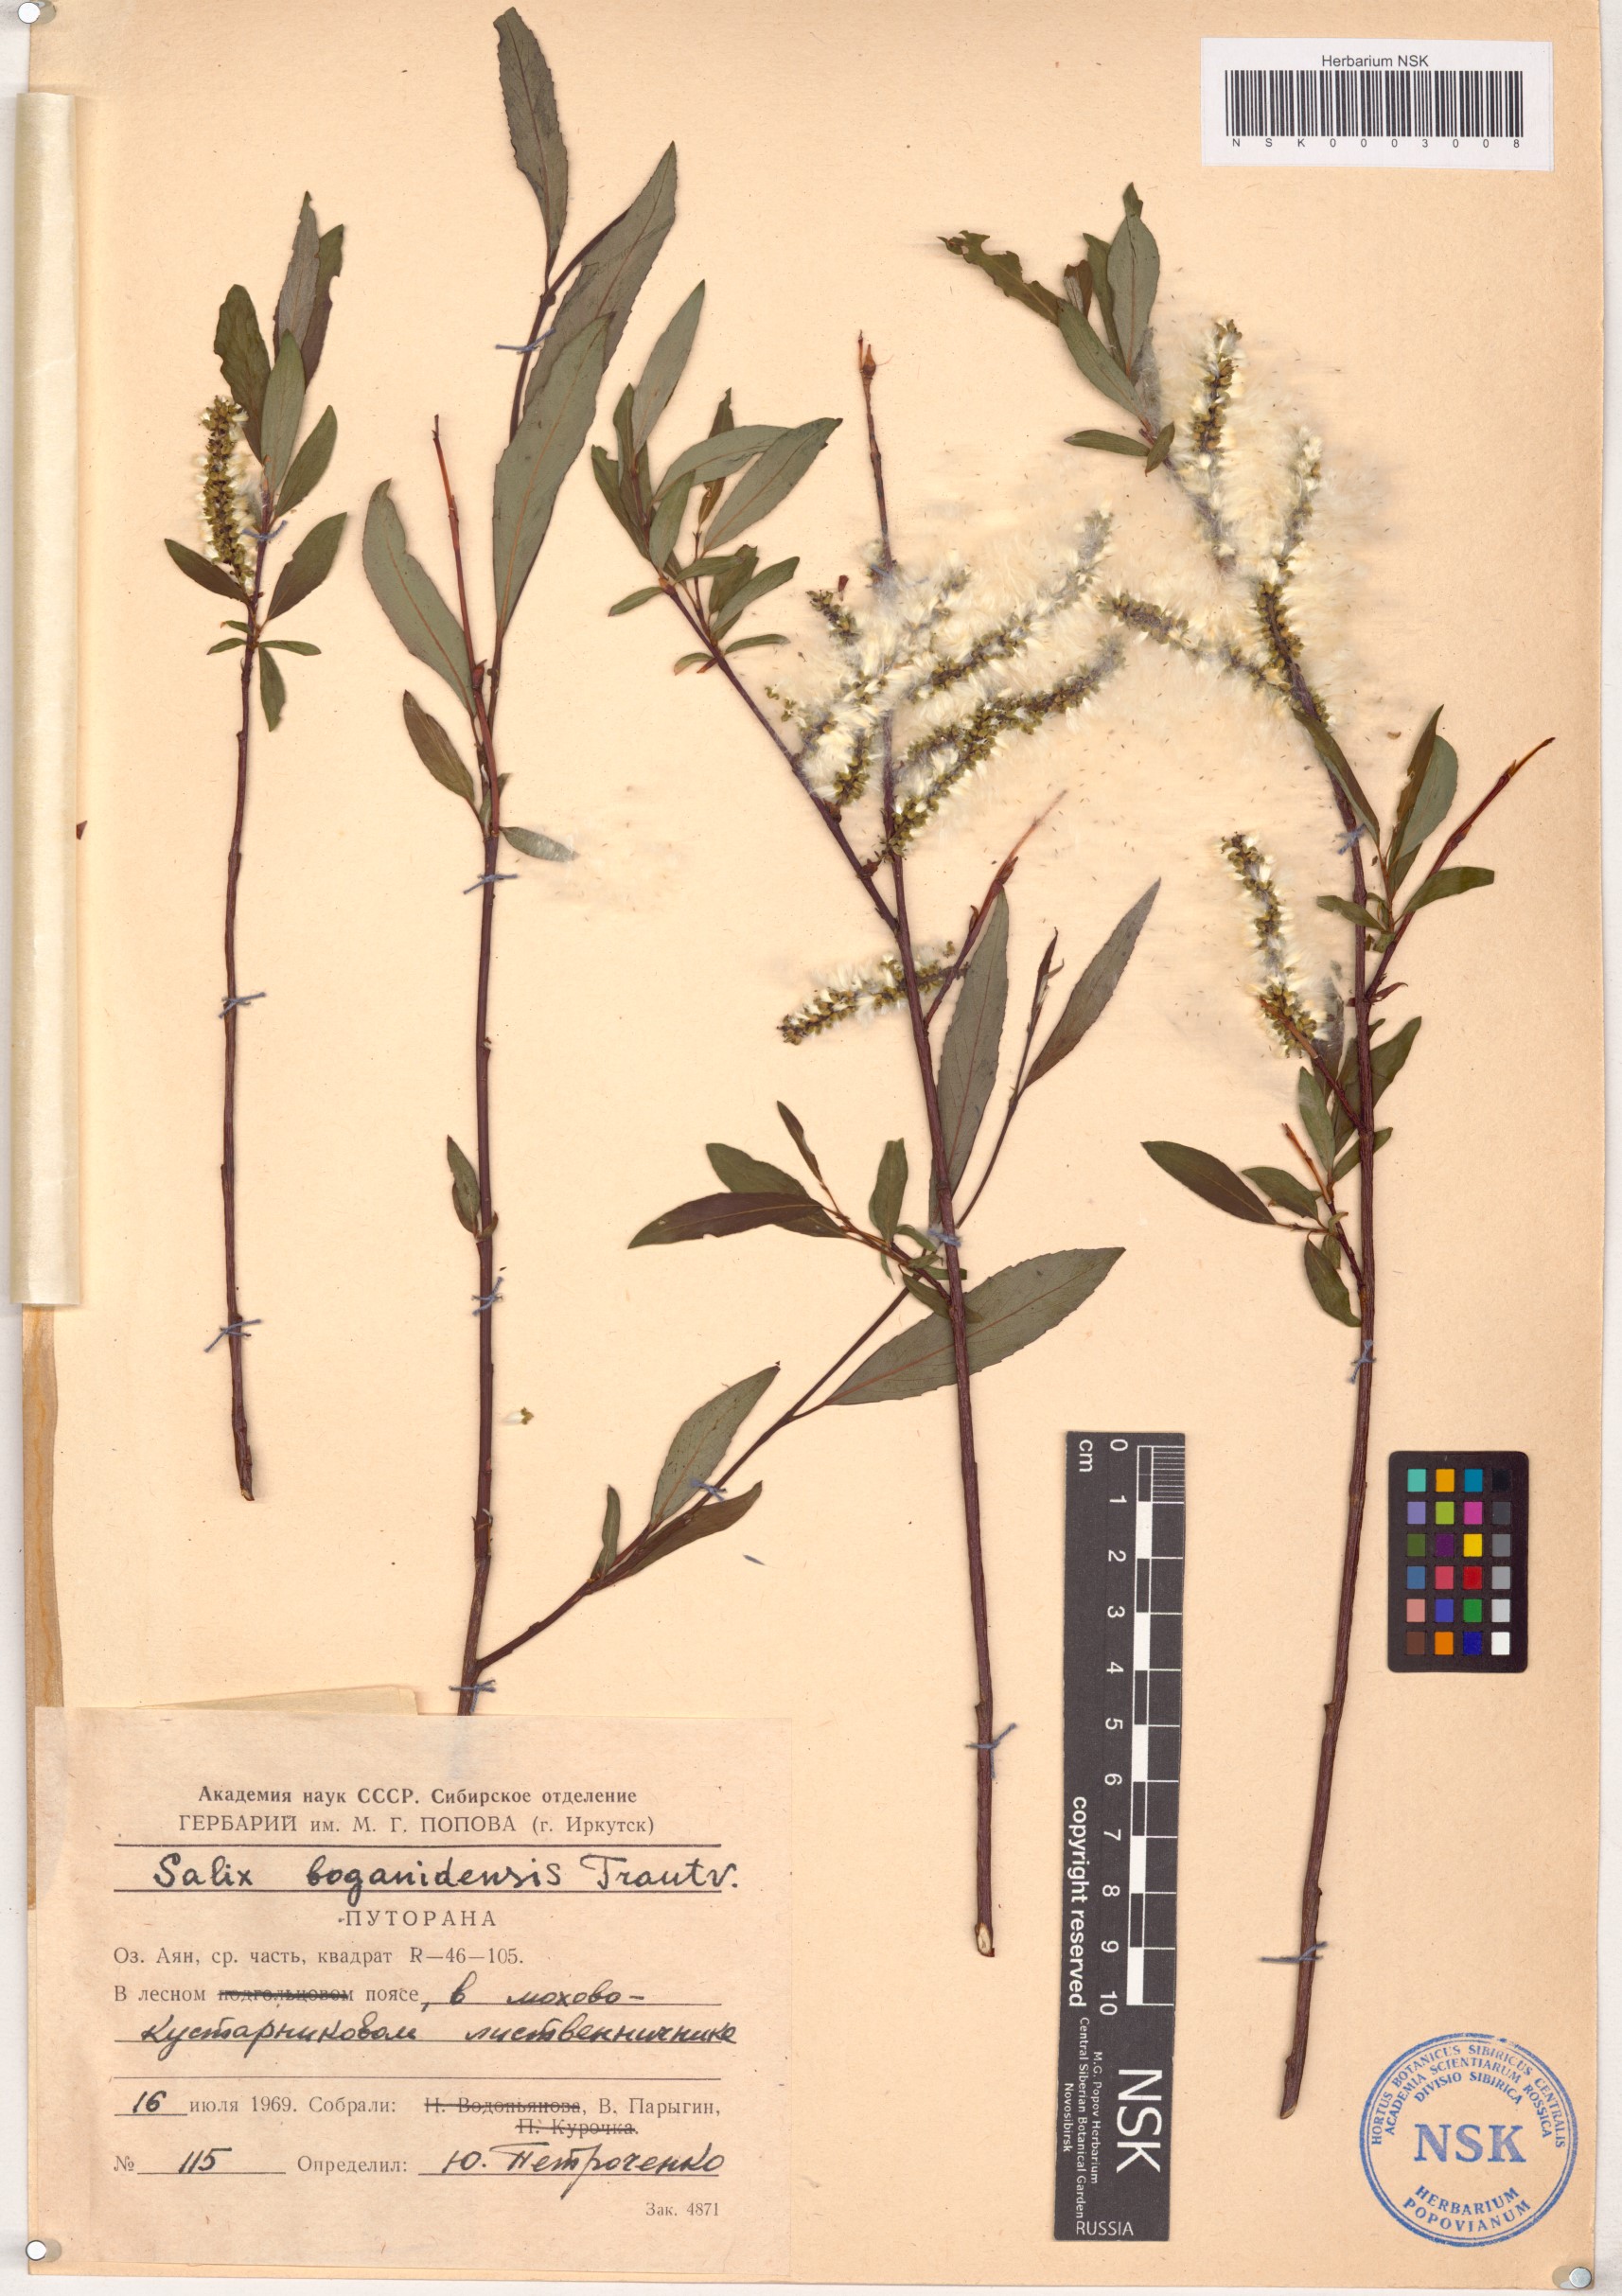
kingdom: Plantae
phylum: Tracheophyta
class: Magnoliopsida
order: Malpighiales
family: Salicaceae
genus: Salix
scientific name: Salix boganidensis
